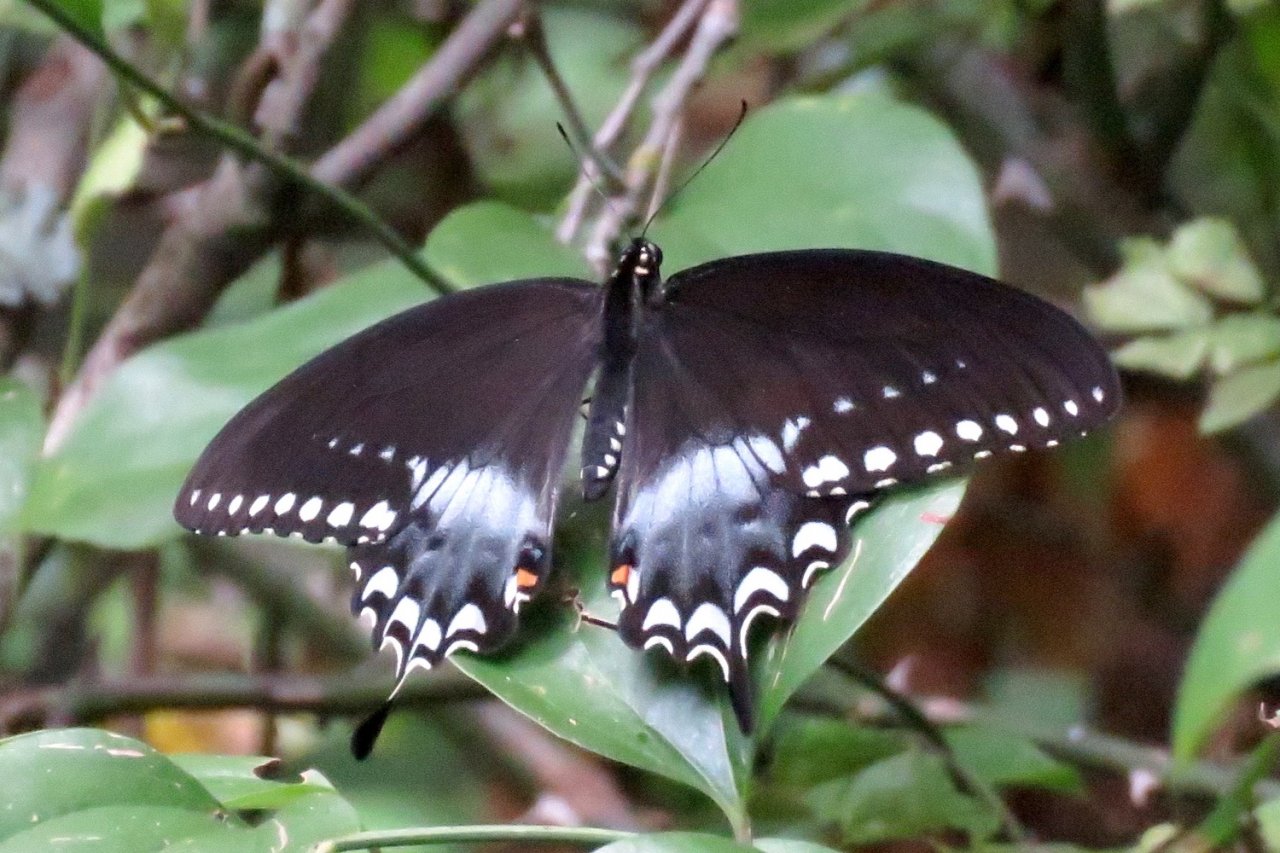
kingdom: Animalia
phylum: Arthropoda
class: Insecta
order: Lepidoptera
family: Papilionidae
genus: Pterourus
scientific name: Pterourus troilus
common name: Spicebush Swallowtail
